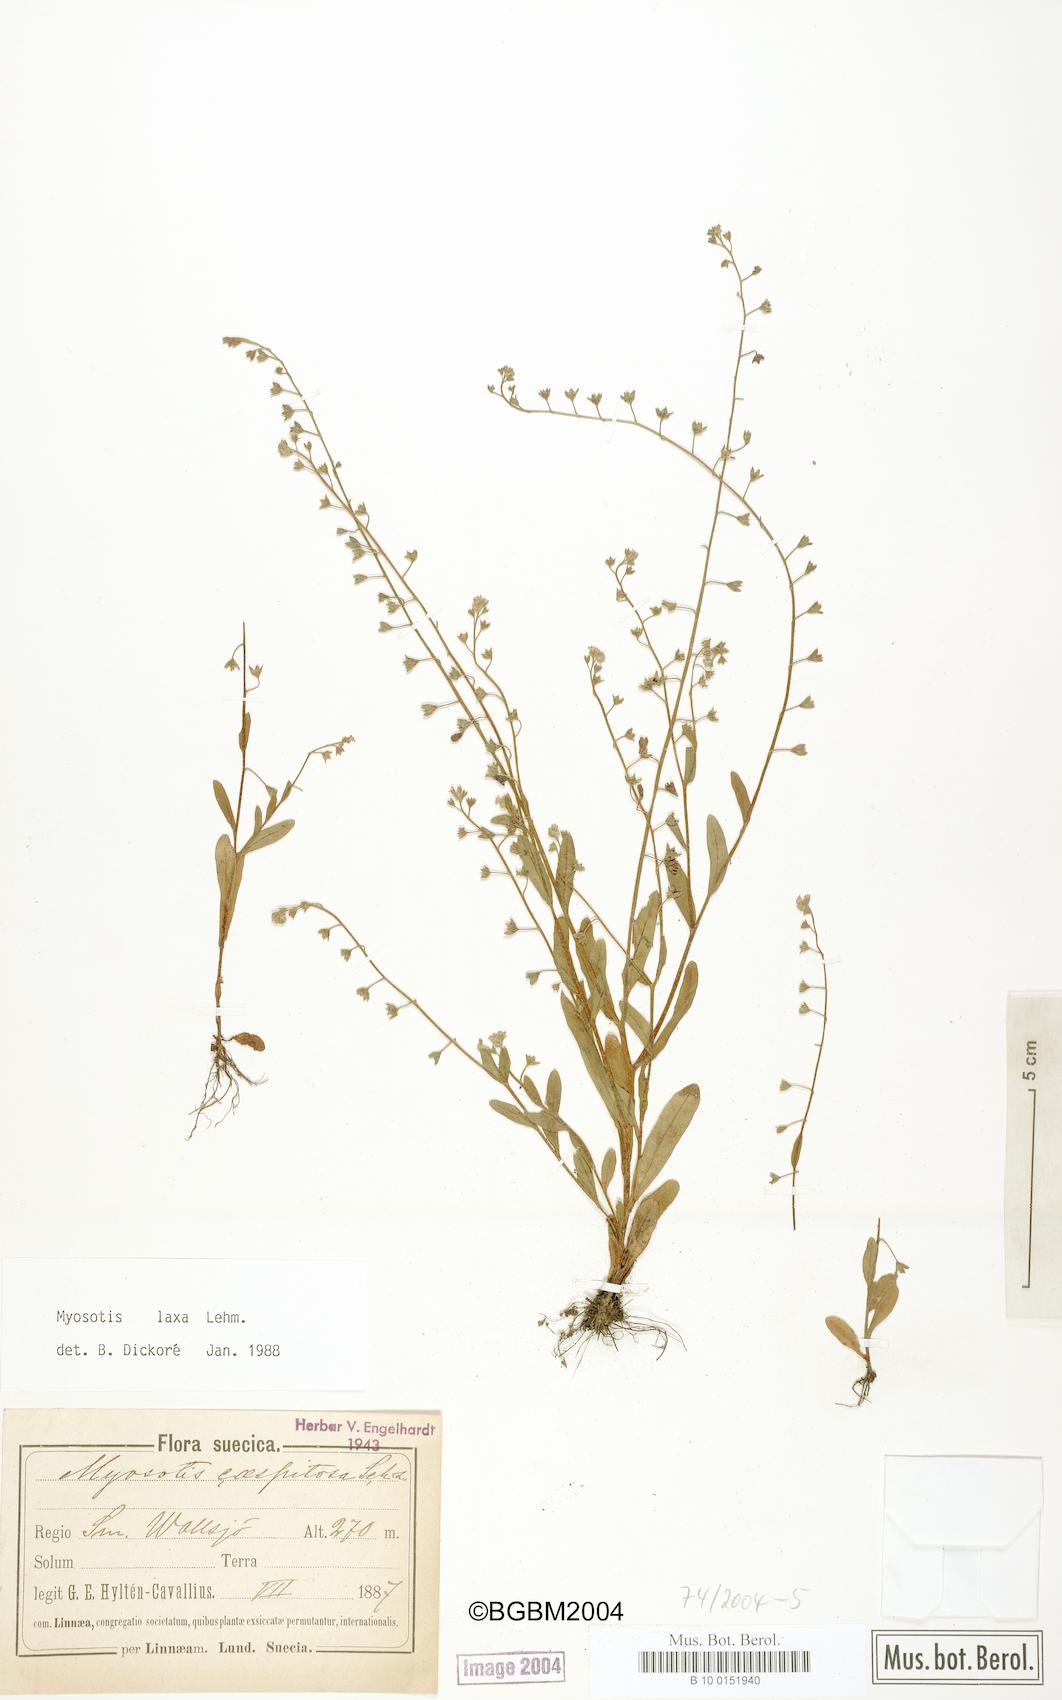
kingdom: Plantae
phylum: Tracheophyta
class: Magnoliopsida
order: Boraginales
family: Boraginaceae
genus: Myosotis
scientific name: Myosotis laxa
